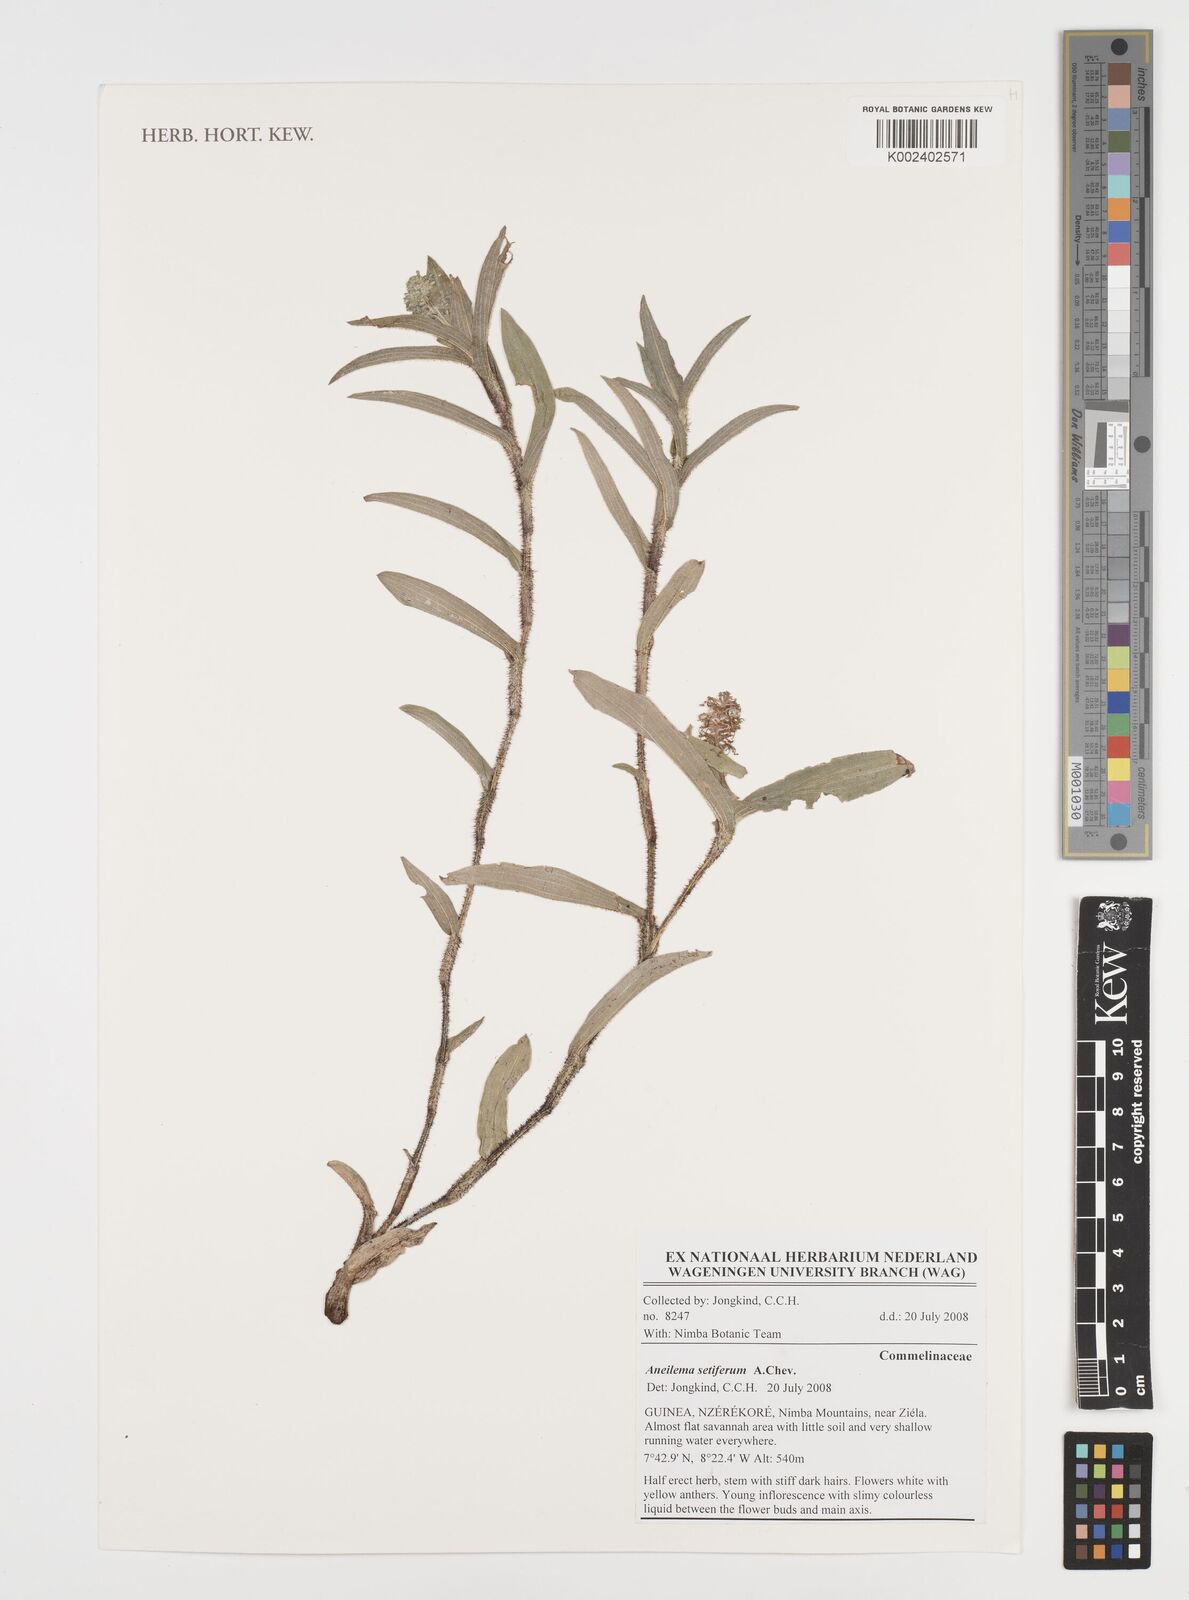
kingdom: Plantae
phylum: Tracheophyta
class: Liliopsida
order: Commelinales
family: Commelinaceae
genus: Aneilema
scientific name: Aneilema setiferum
